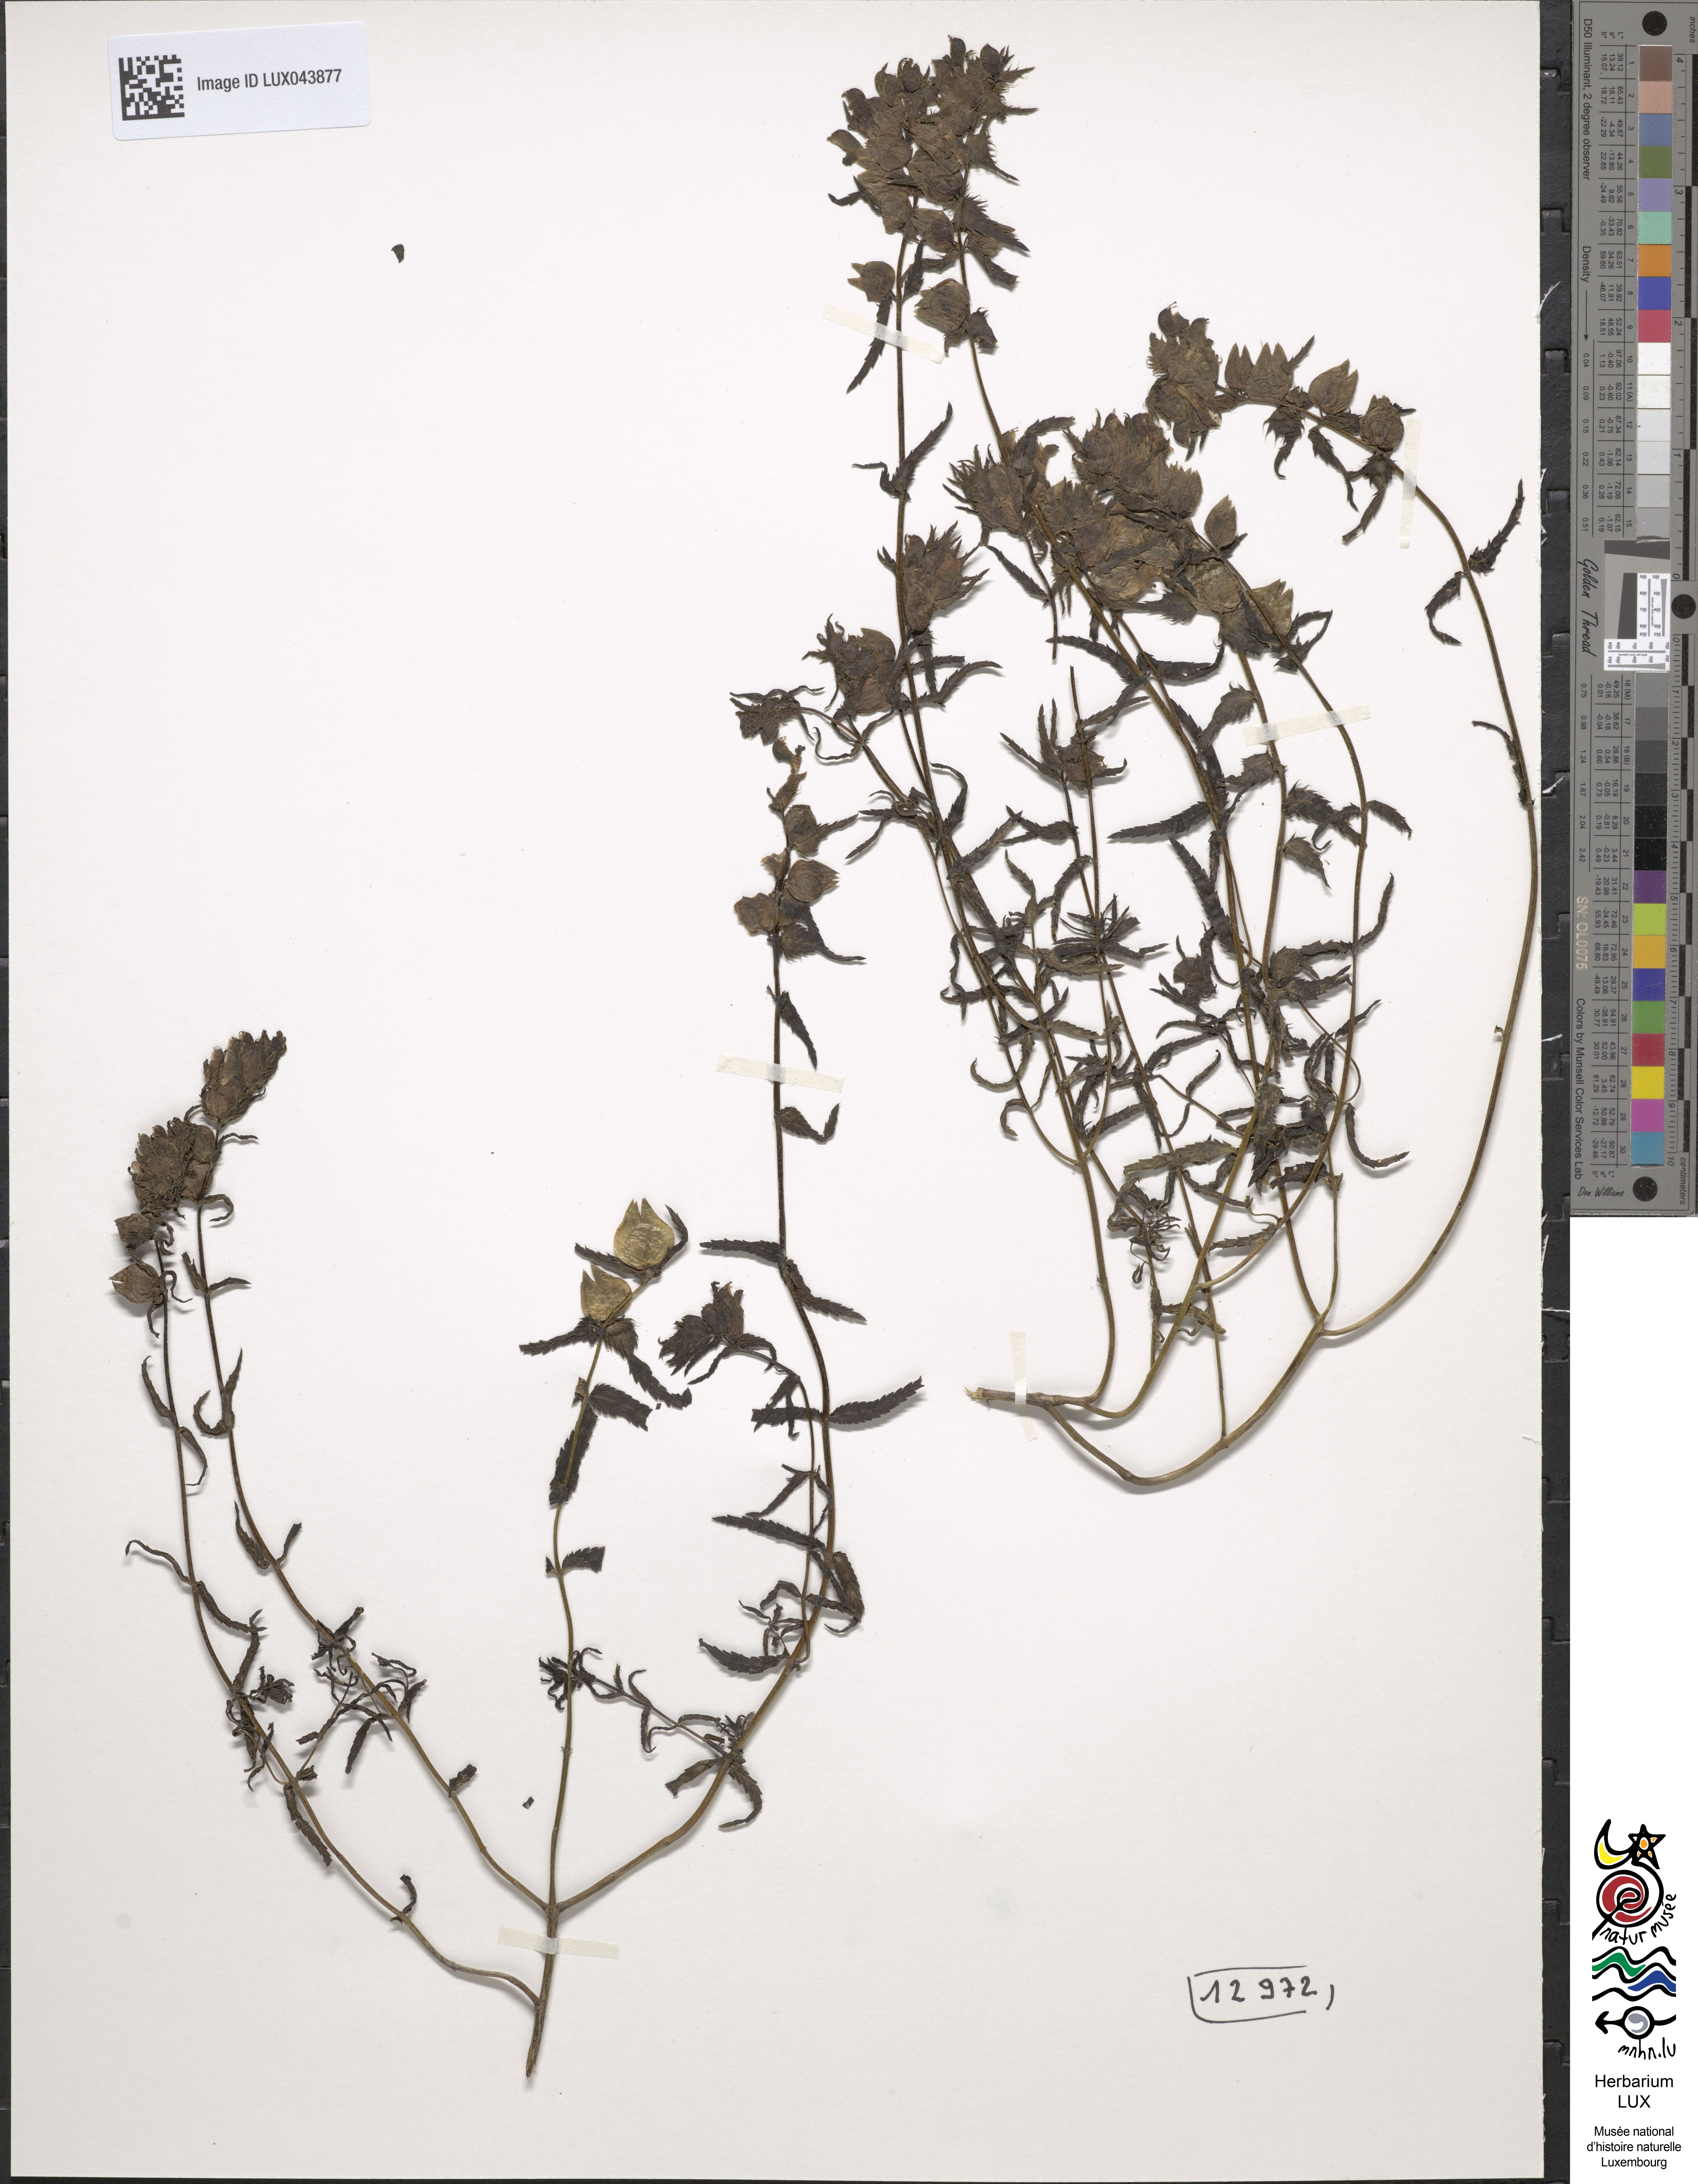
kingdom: Plantae
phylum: Tracheophyta
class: Magnoliopsida
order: Lamiales
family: Orobanchaceae
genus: Rhinanthus
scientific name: Rhinanthus
